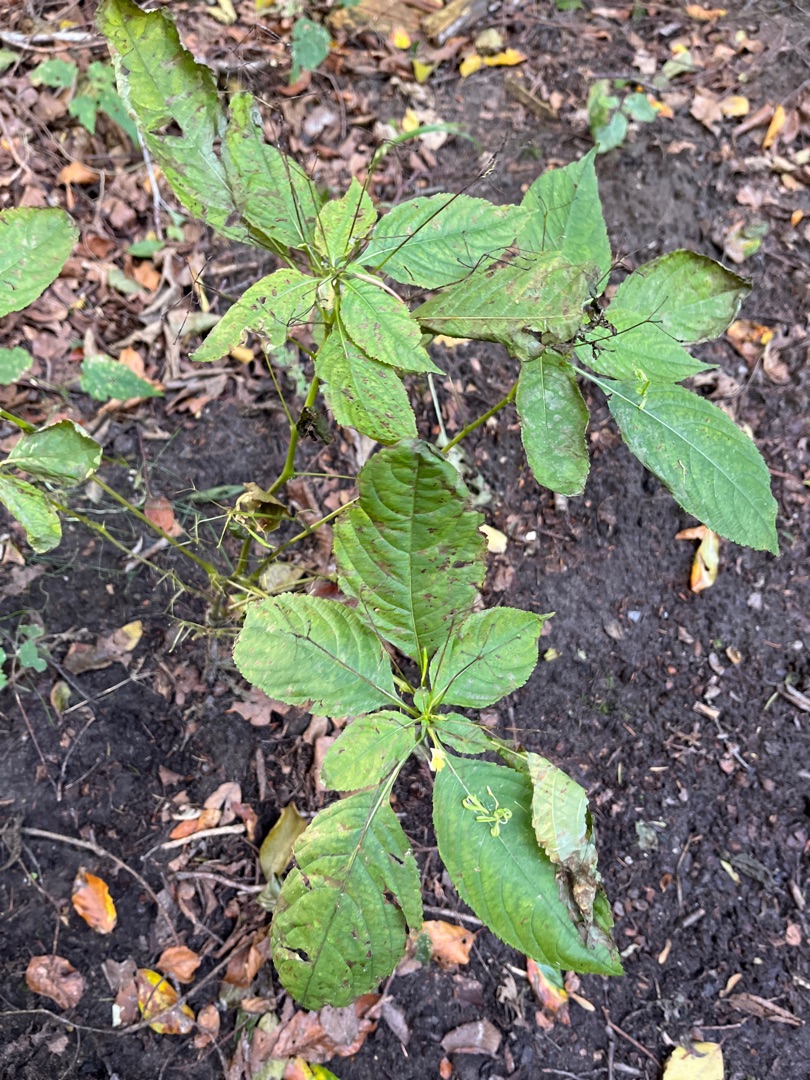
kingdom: Plantae
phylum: Tracheophyta
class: Magnoliopsida
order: Ericales
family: Balsaminaceae
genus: Impatiens
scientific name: Impatiens parviflora
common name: Småblomstret balsamin
